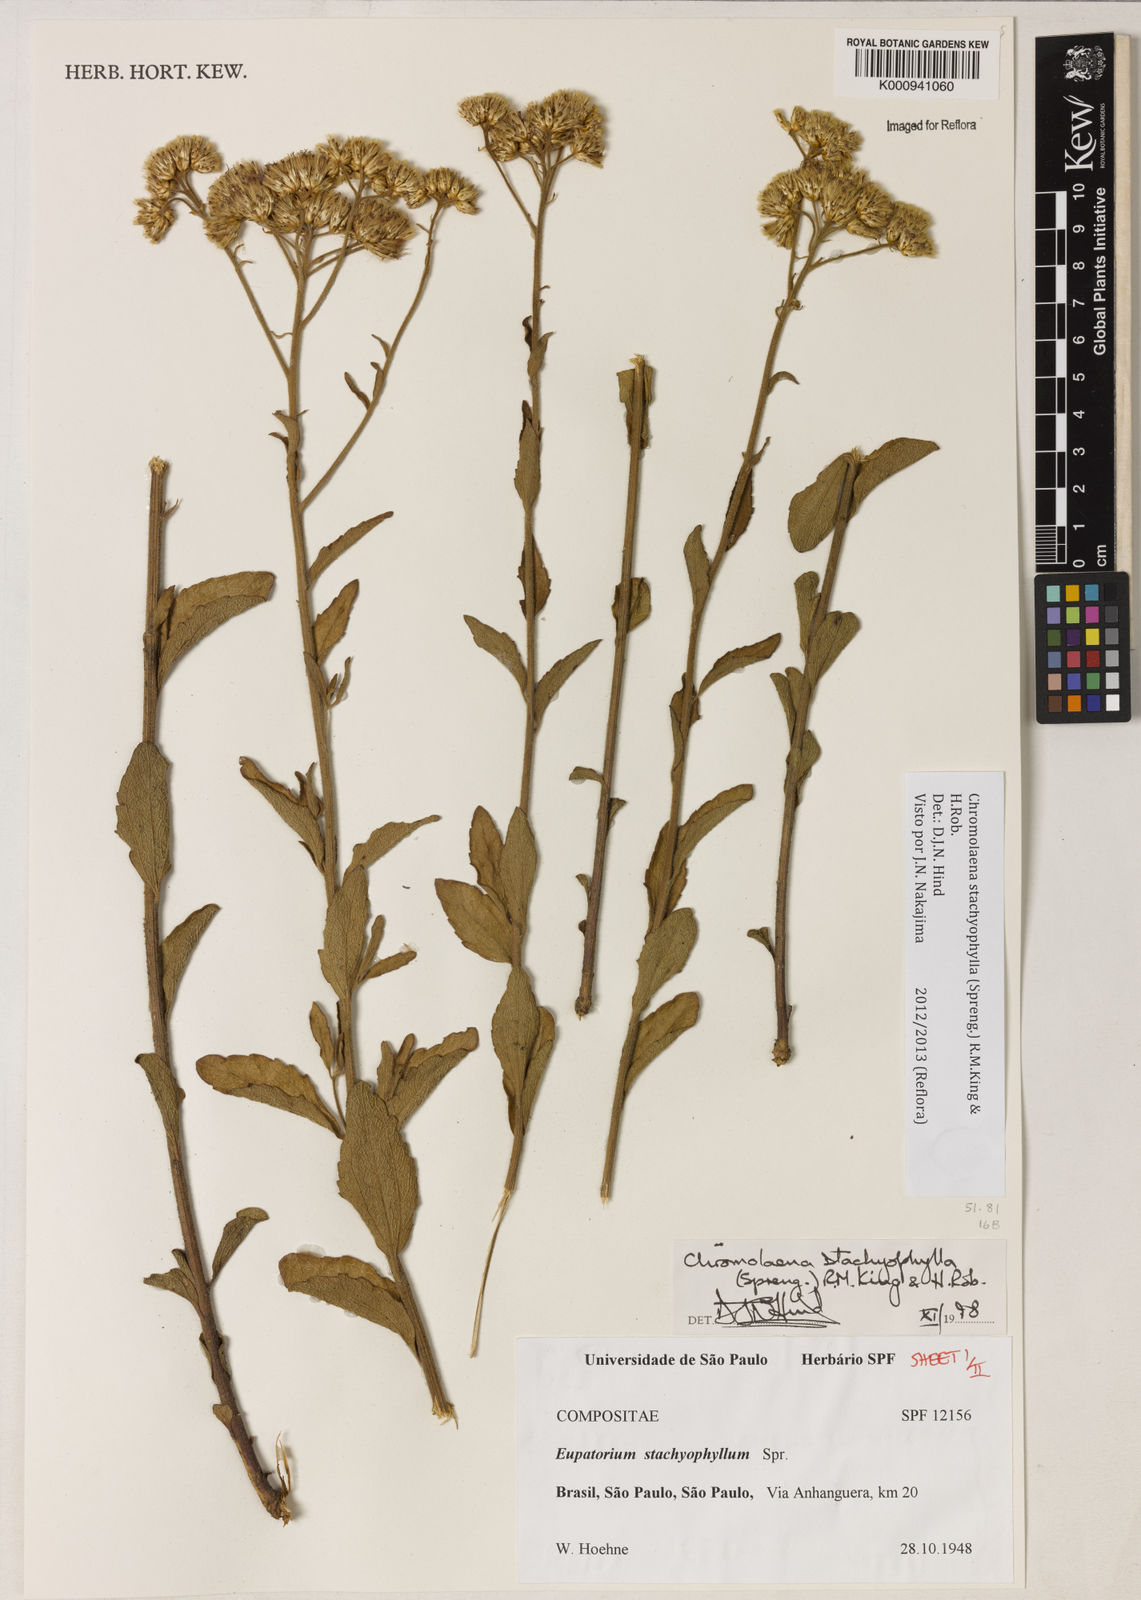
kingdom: Plantae
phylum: Tracheophyta
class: Magnoliopsida
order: Asterales
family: Asteraceae
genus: Chromolaena
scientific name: Chromolaena stachyophylla
